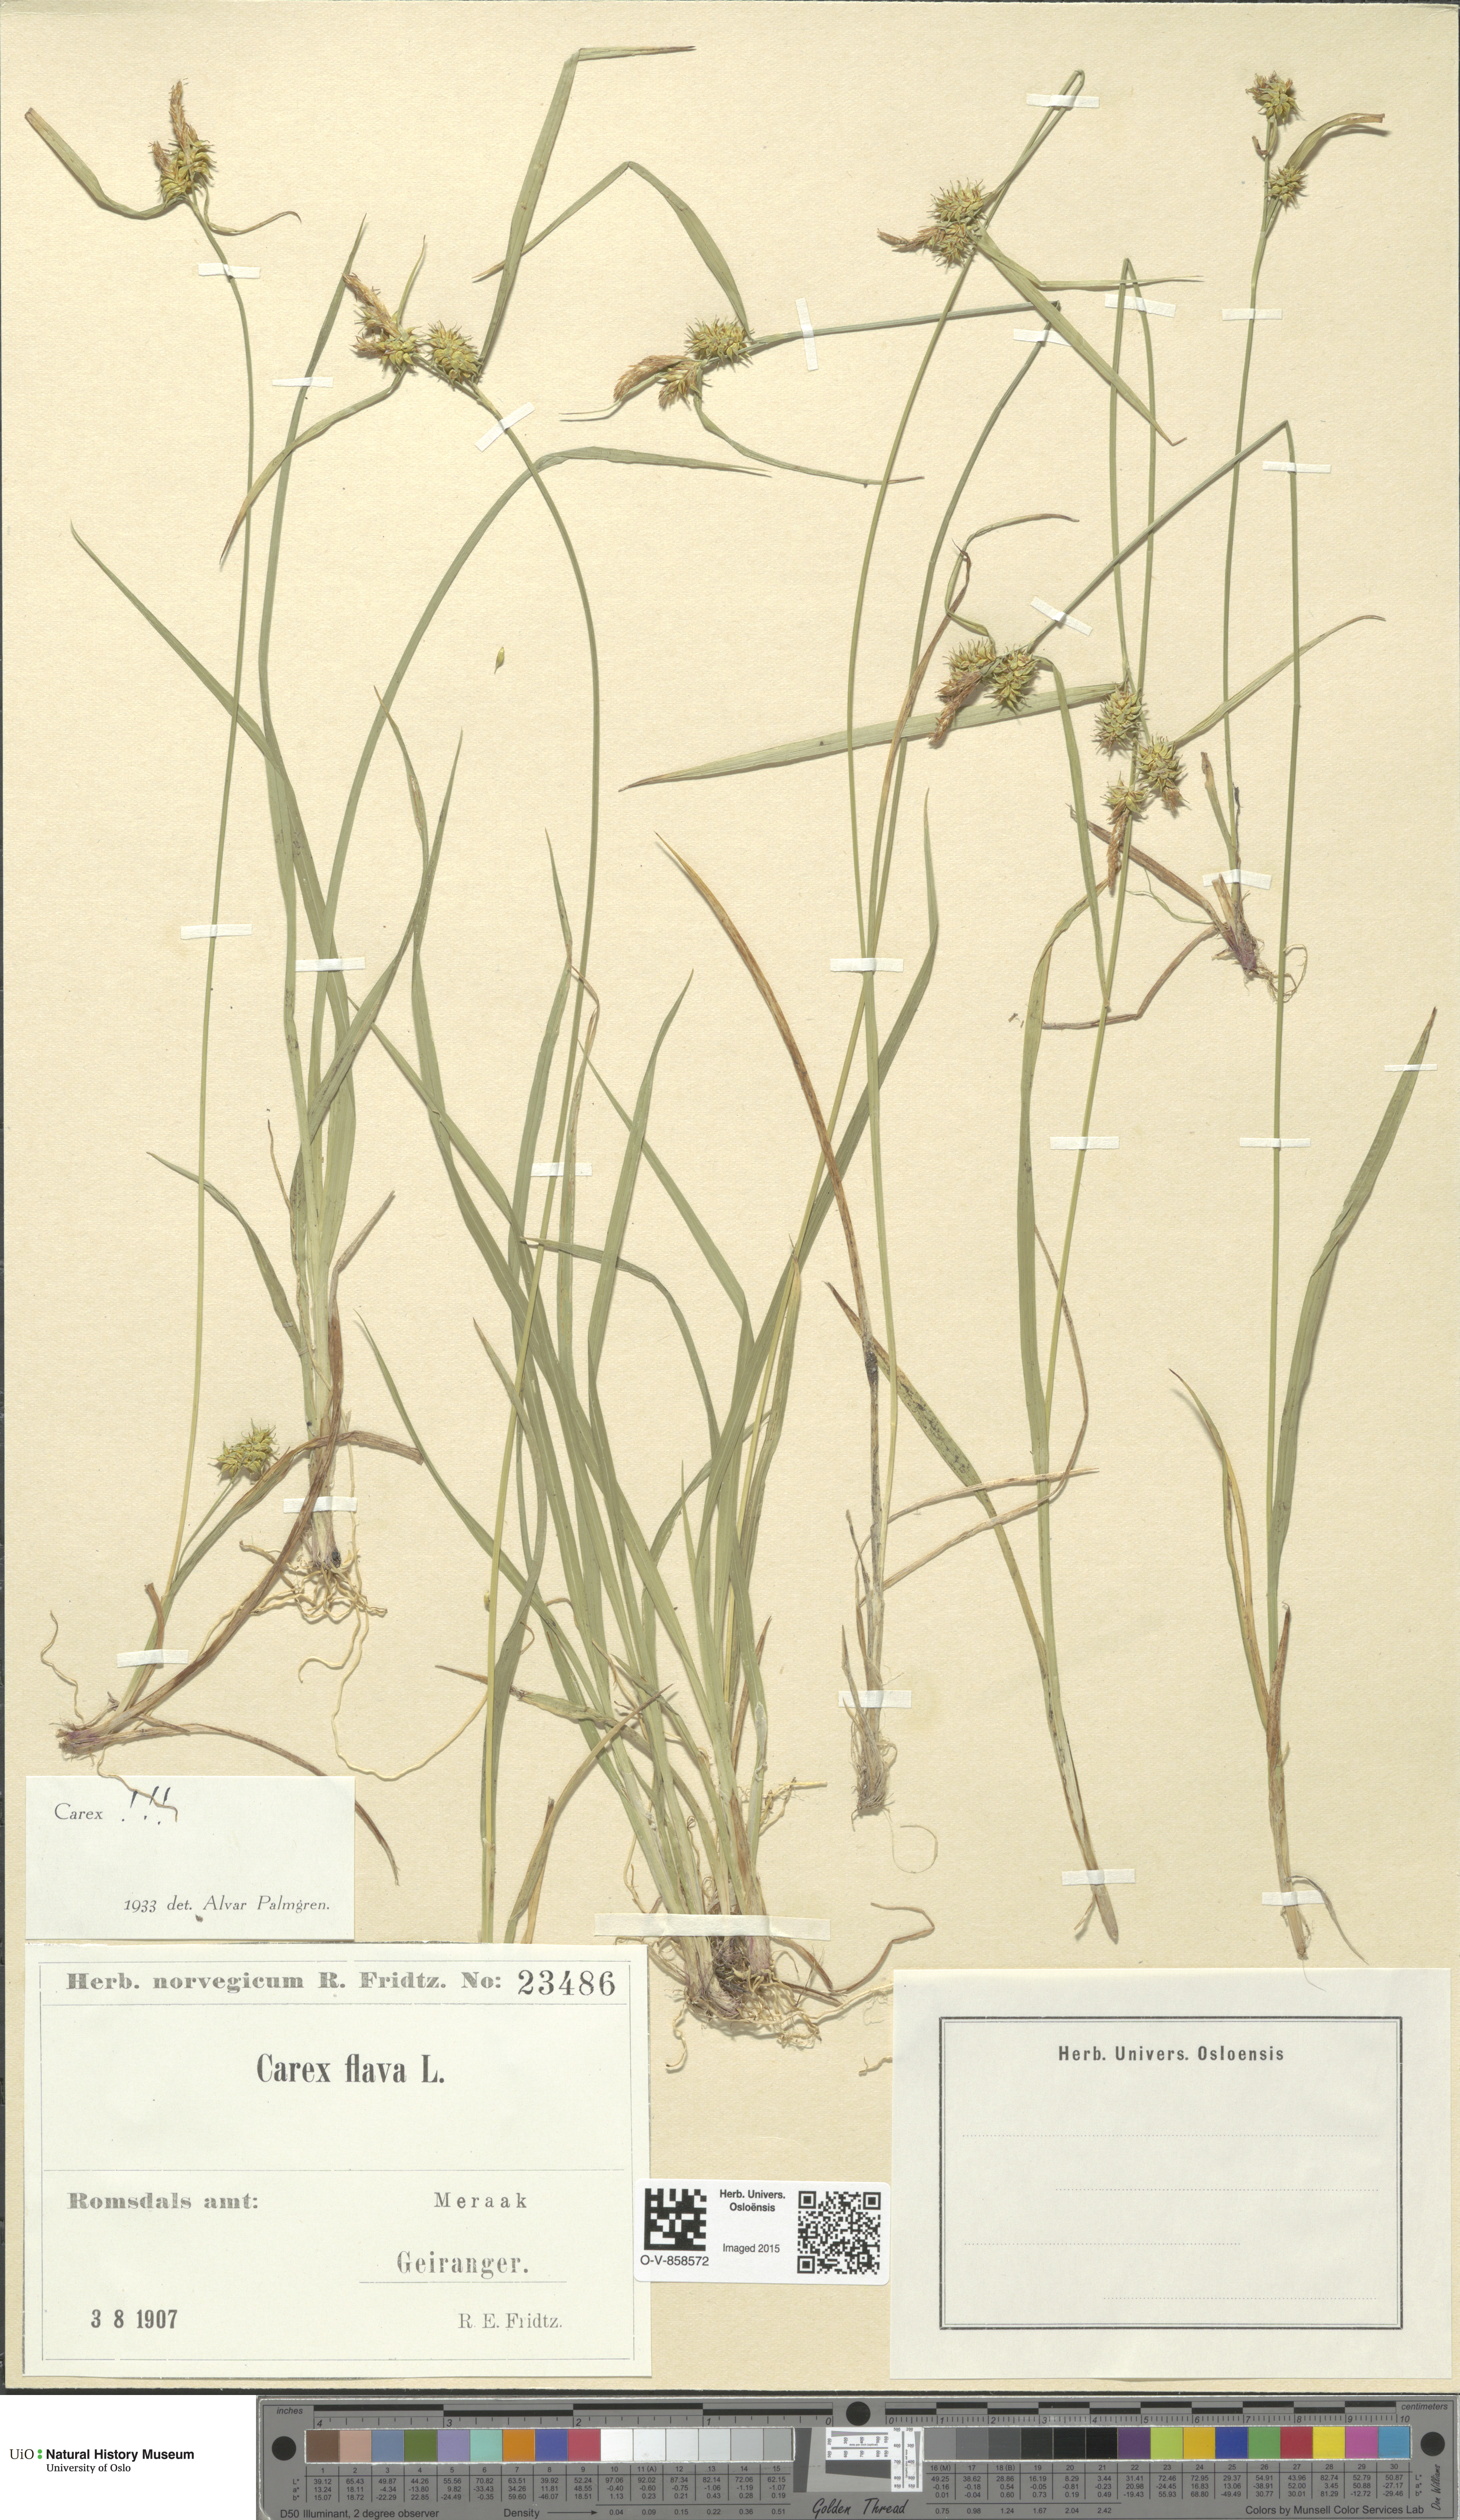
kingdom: Plantae
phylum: Tracheophyta
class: Liliopsida
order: Poales
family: Cyperaceae
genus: Carex
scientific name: Carex flava
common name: Large yellow-sedge
